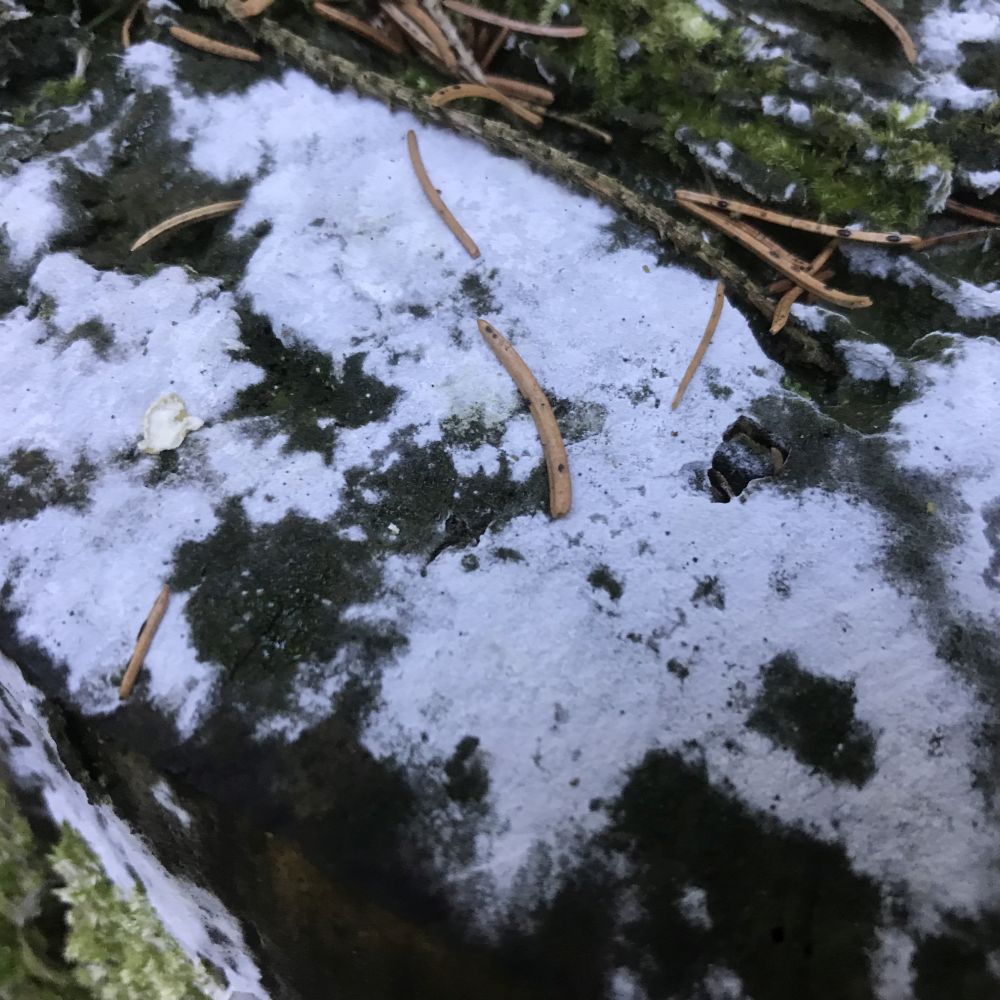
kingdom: Fungi
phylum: Basidiomycota
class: Agaricomycetes
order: Corticiales
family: Corticiaceae
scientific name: Corticiaceae
